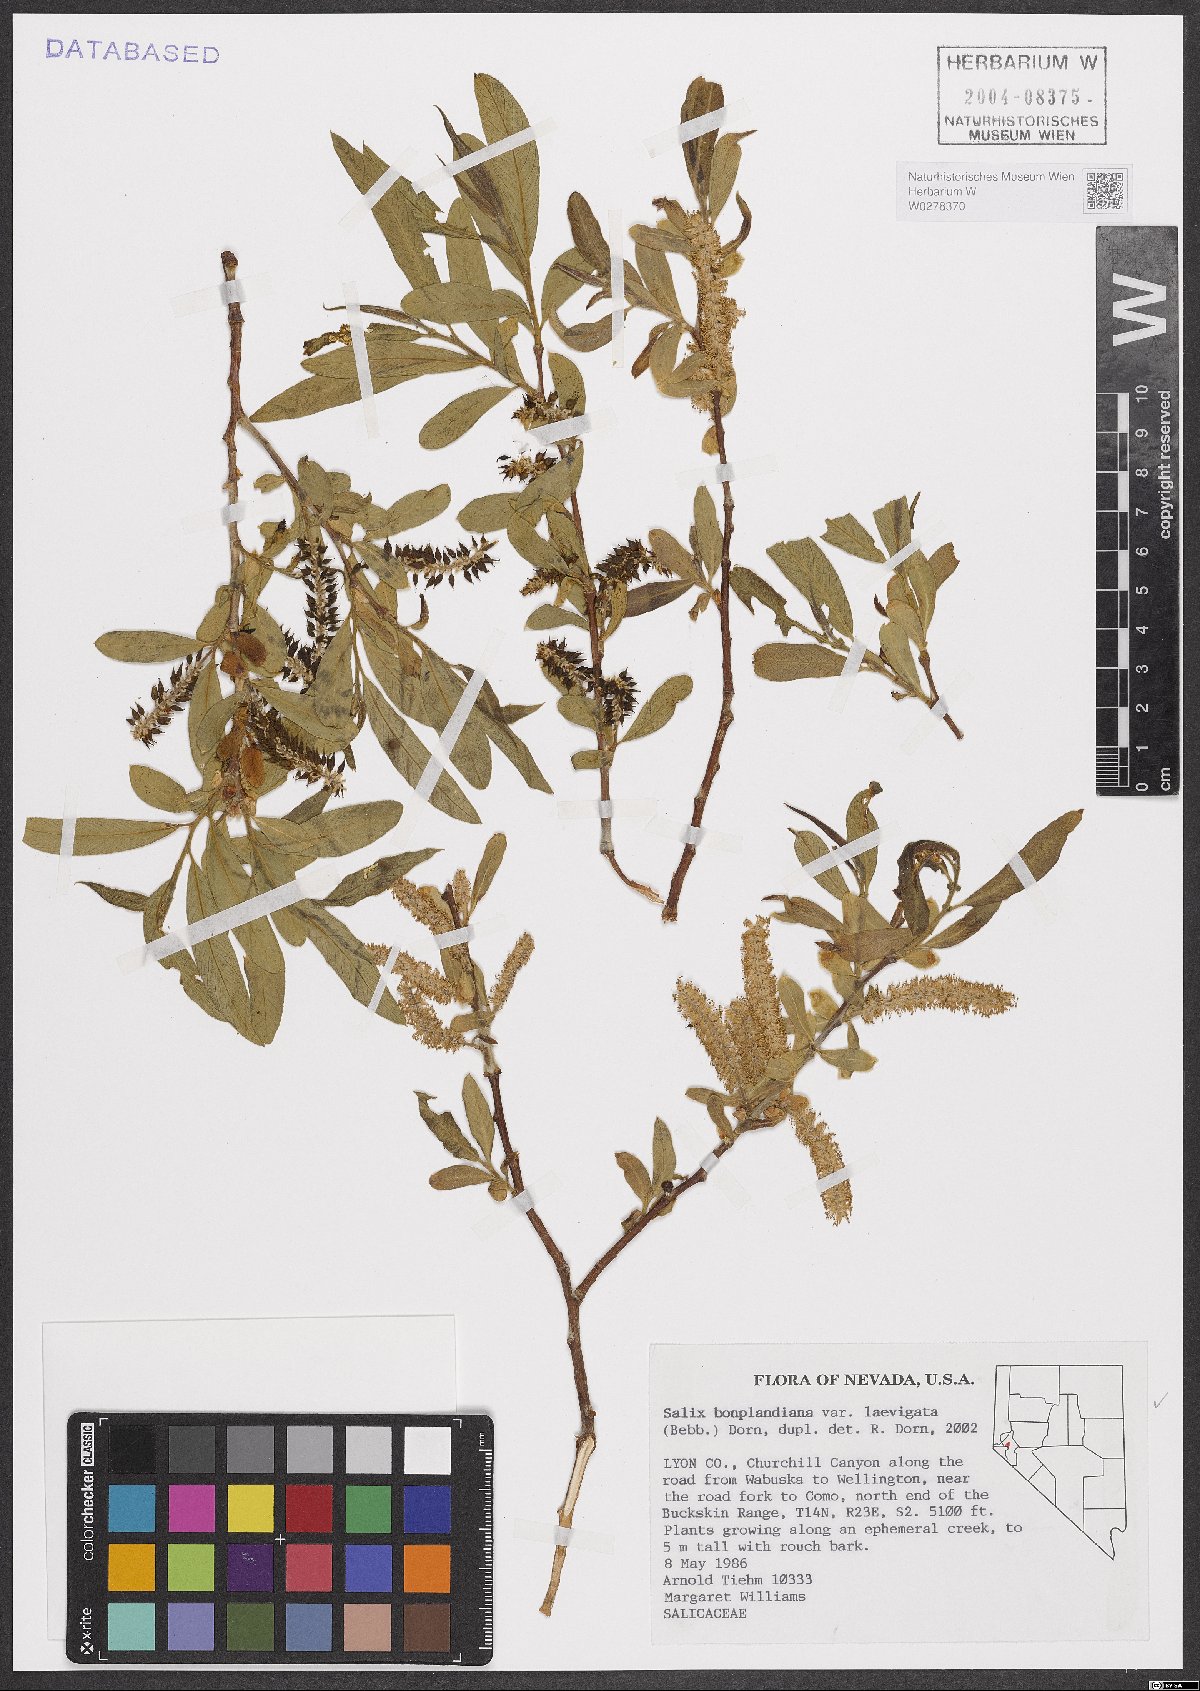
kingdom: Plantae
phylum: Tracheophyta
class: Magnoliopsida
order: Malpighiales
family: Salicaceae
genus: Salix
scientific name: Salix laevigata
